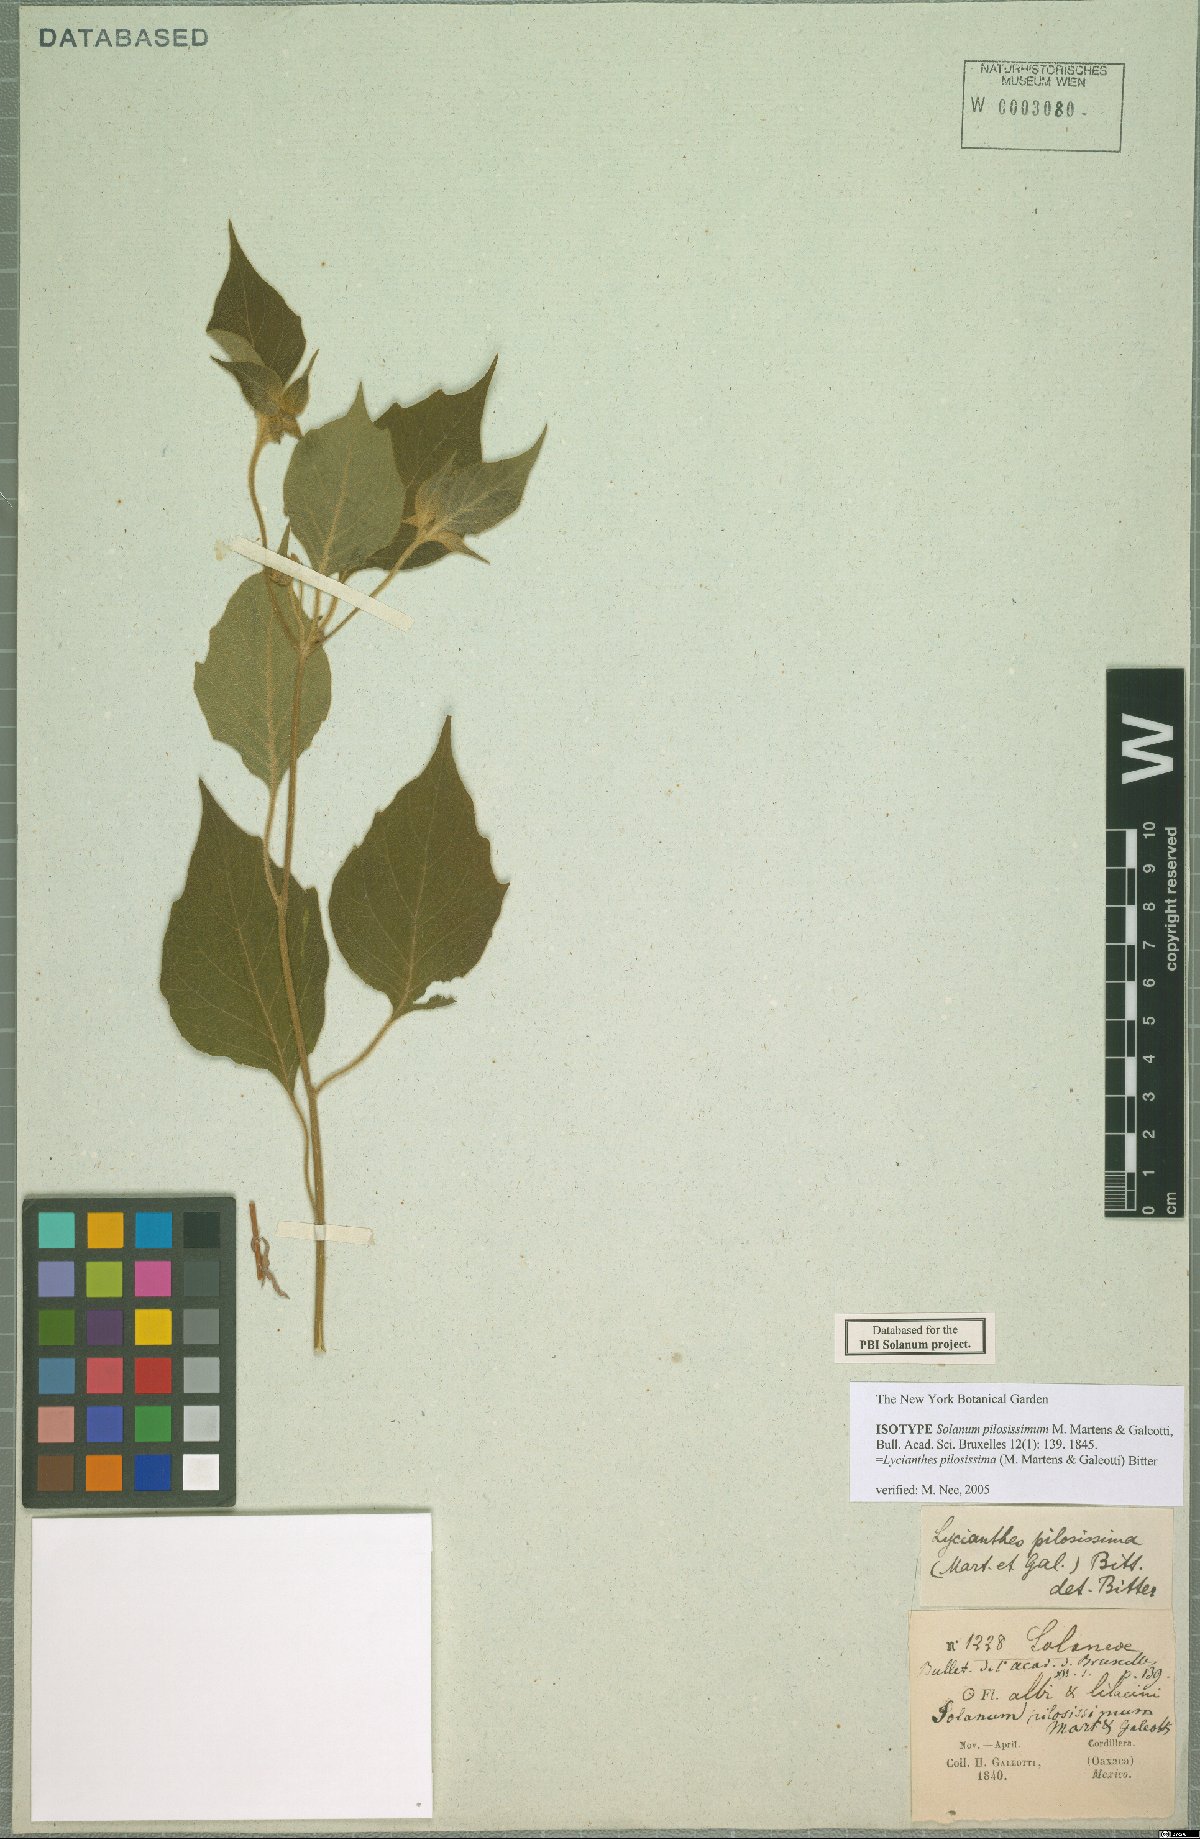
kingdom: Plantae
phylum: Tracheophyta
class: Magnoliopsida
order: Solanales
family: Solanaceae
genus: Lycianthes
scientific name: Lycianthes tricolor
